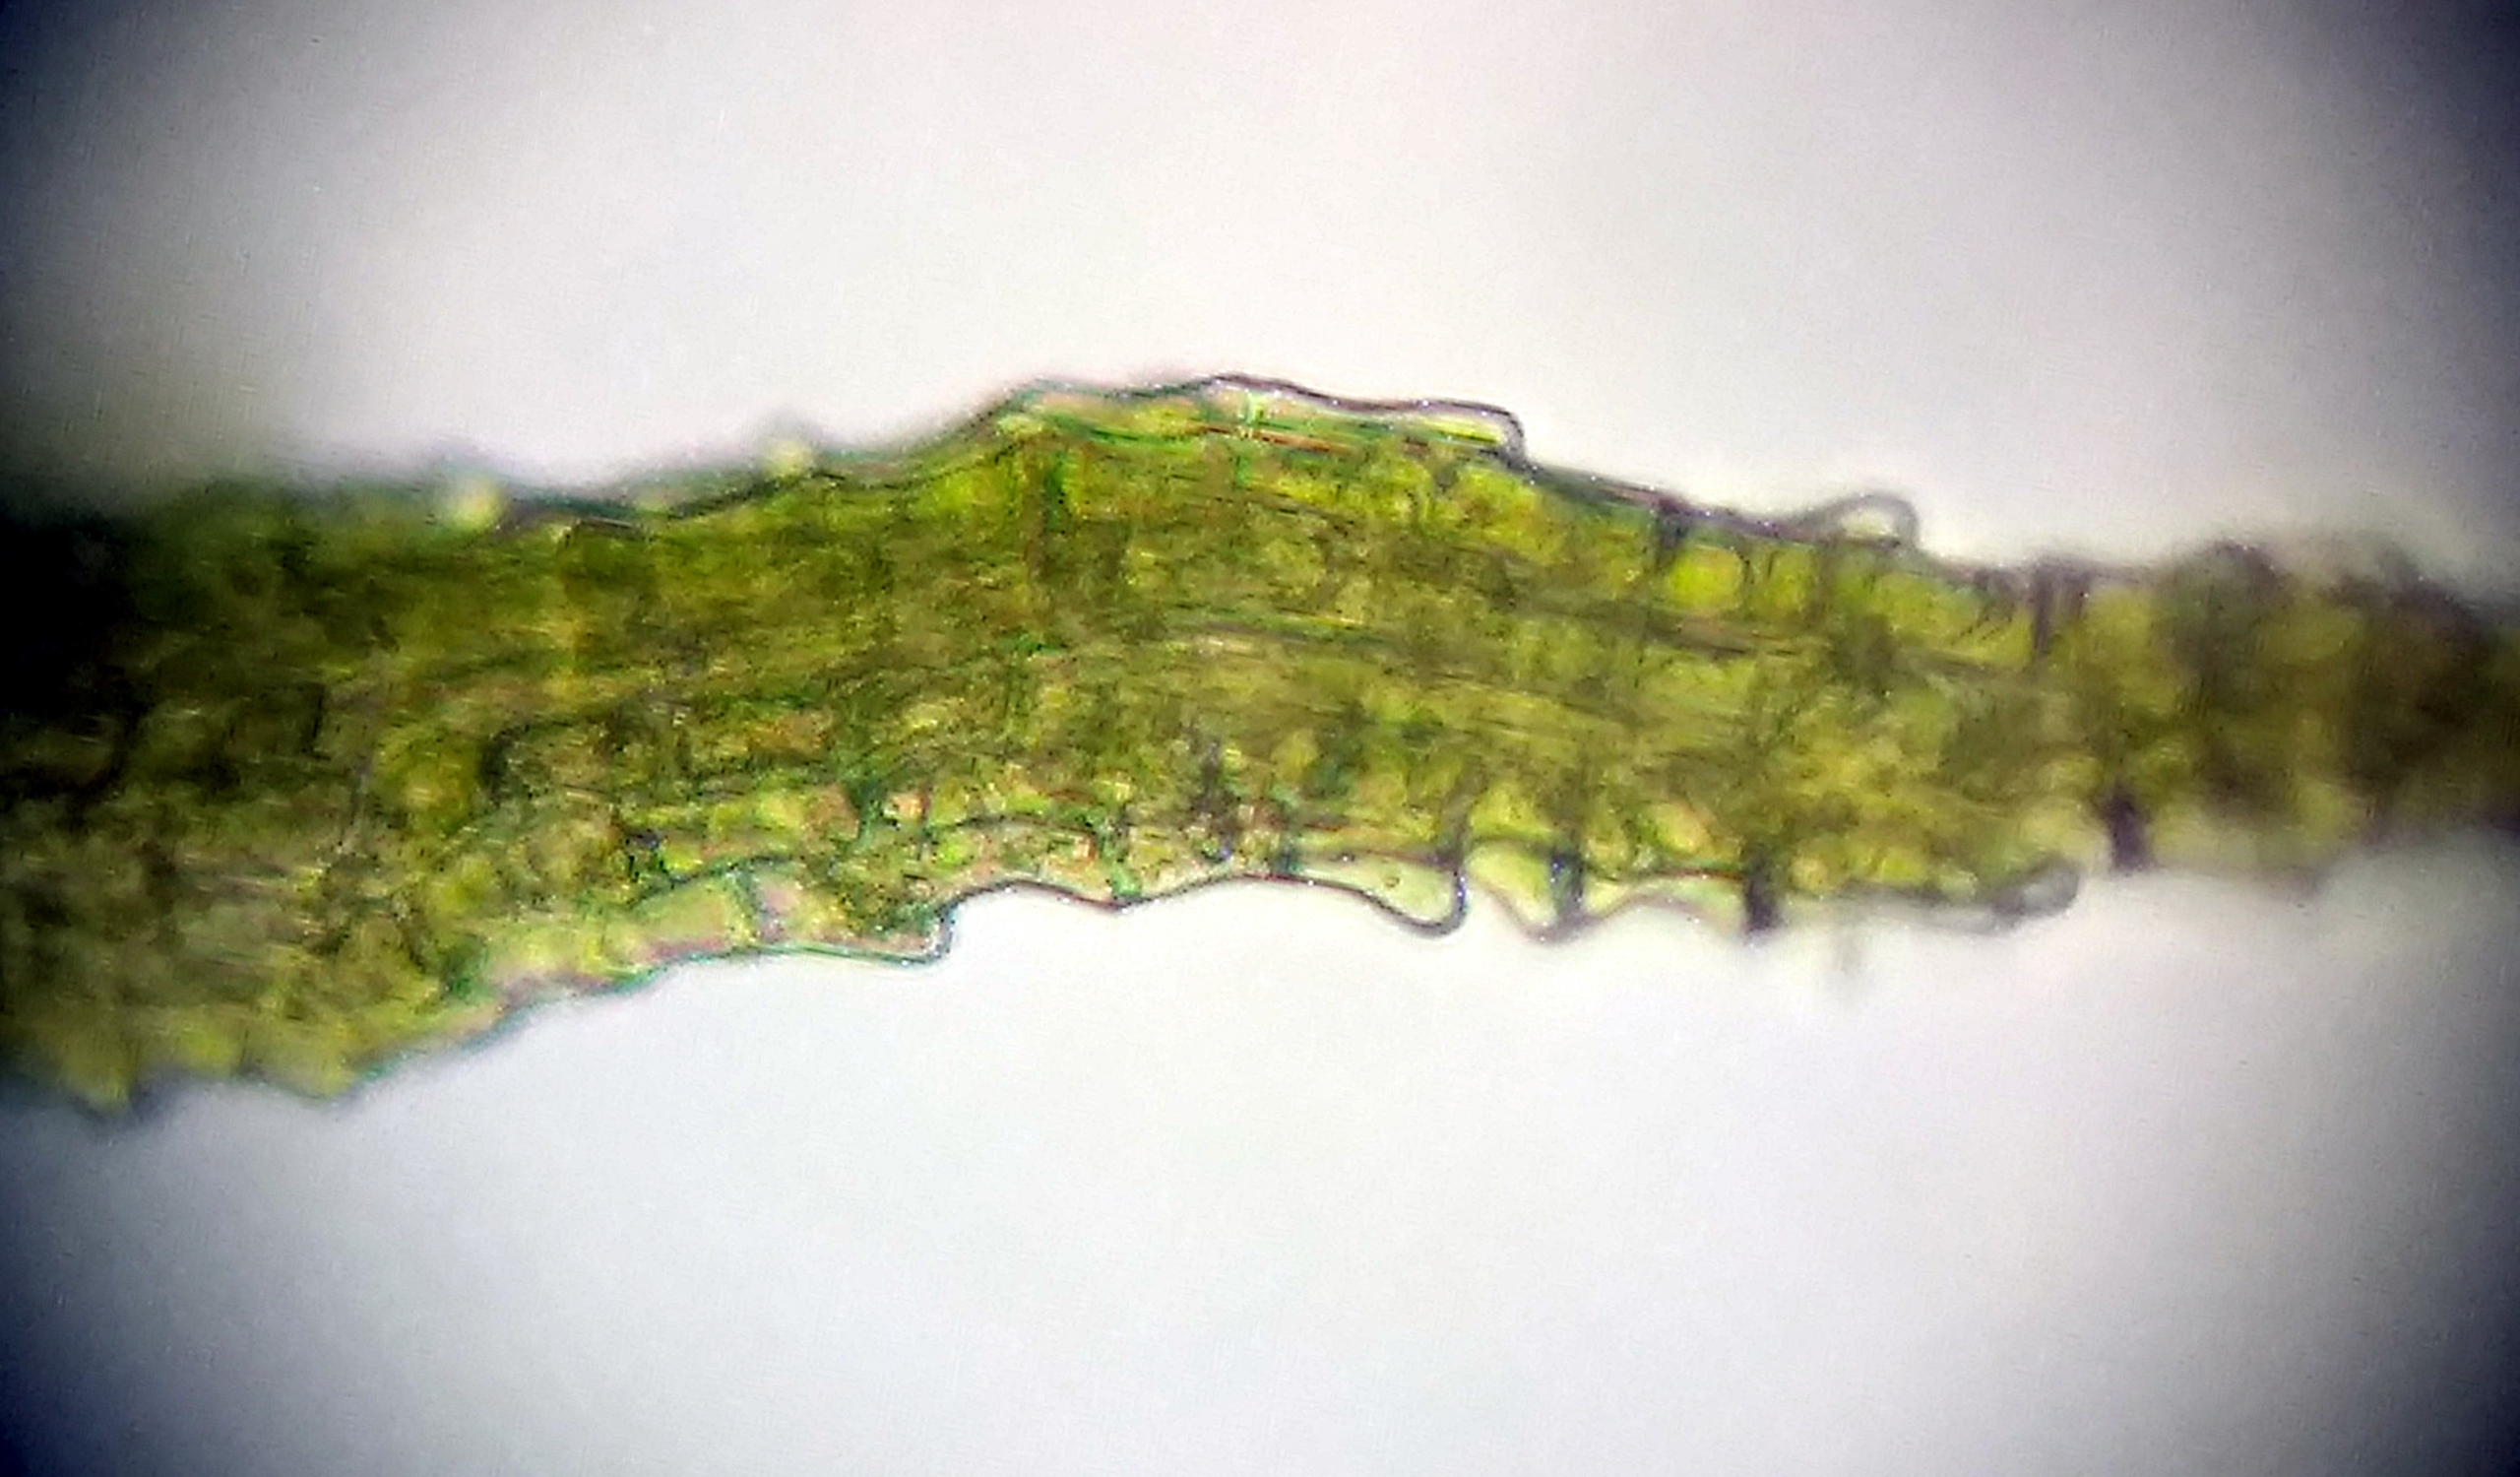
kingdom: Plantae
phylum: Bryophyta
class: Bryopsida
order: Dicranales
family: Ditrichaceae
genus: Trichodon
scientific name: Trichodon cylindricus
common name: Udspærret hårtand
